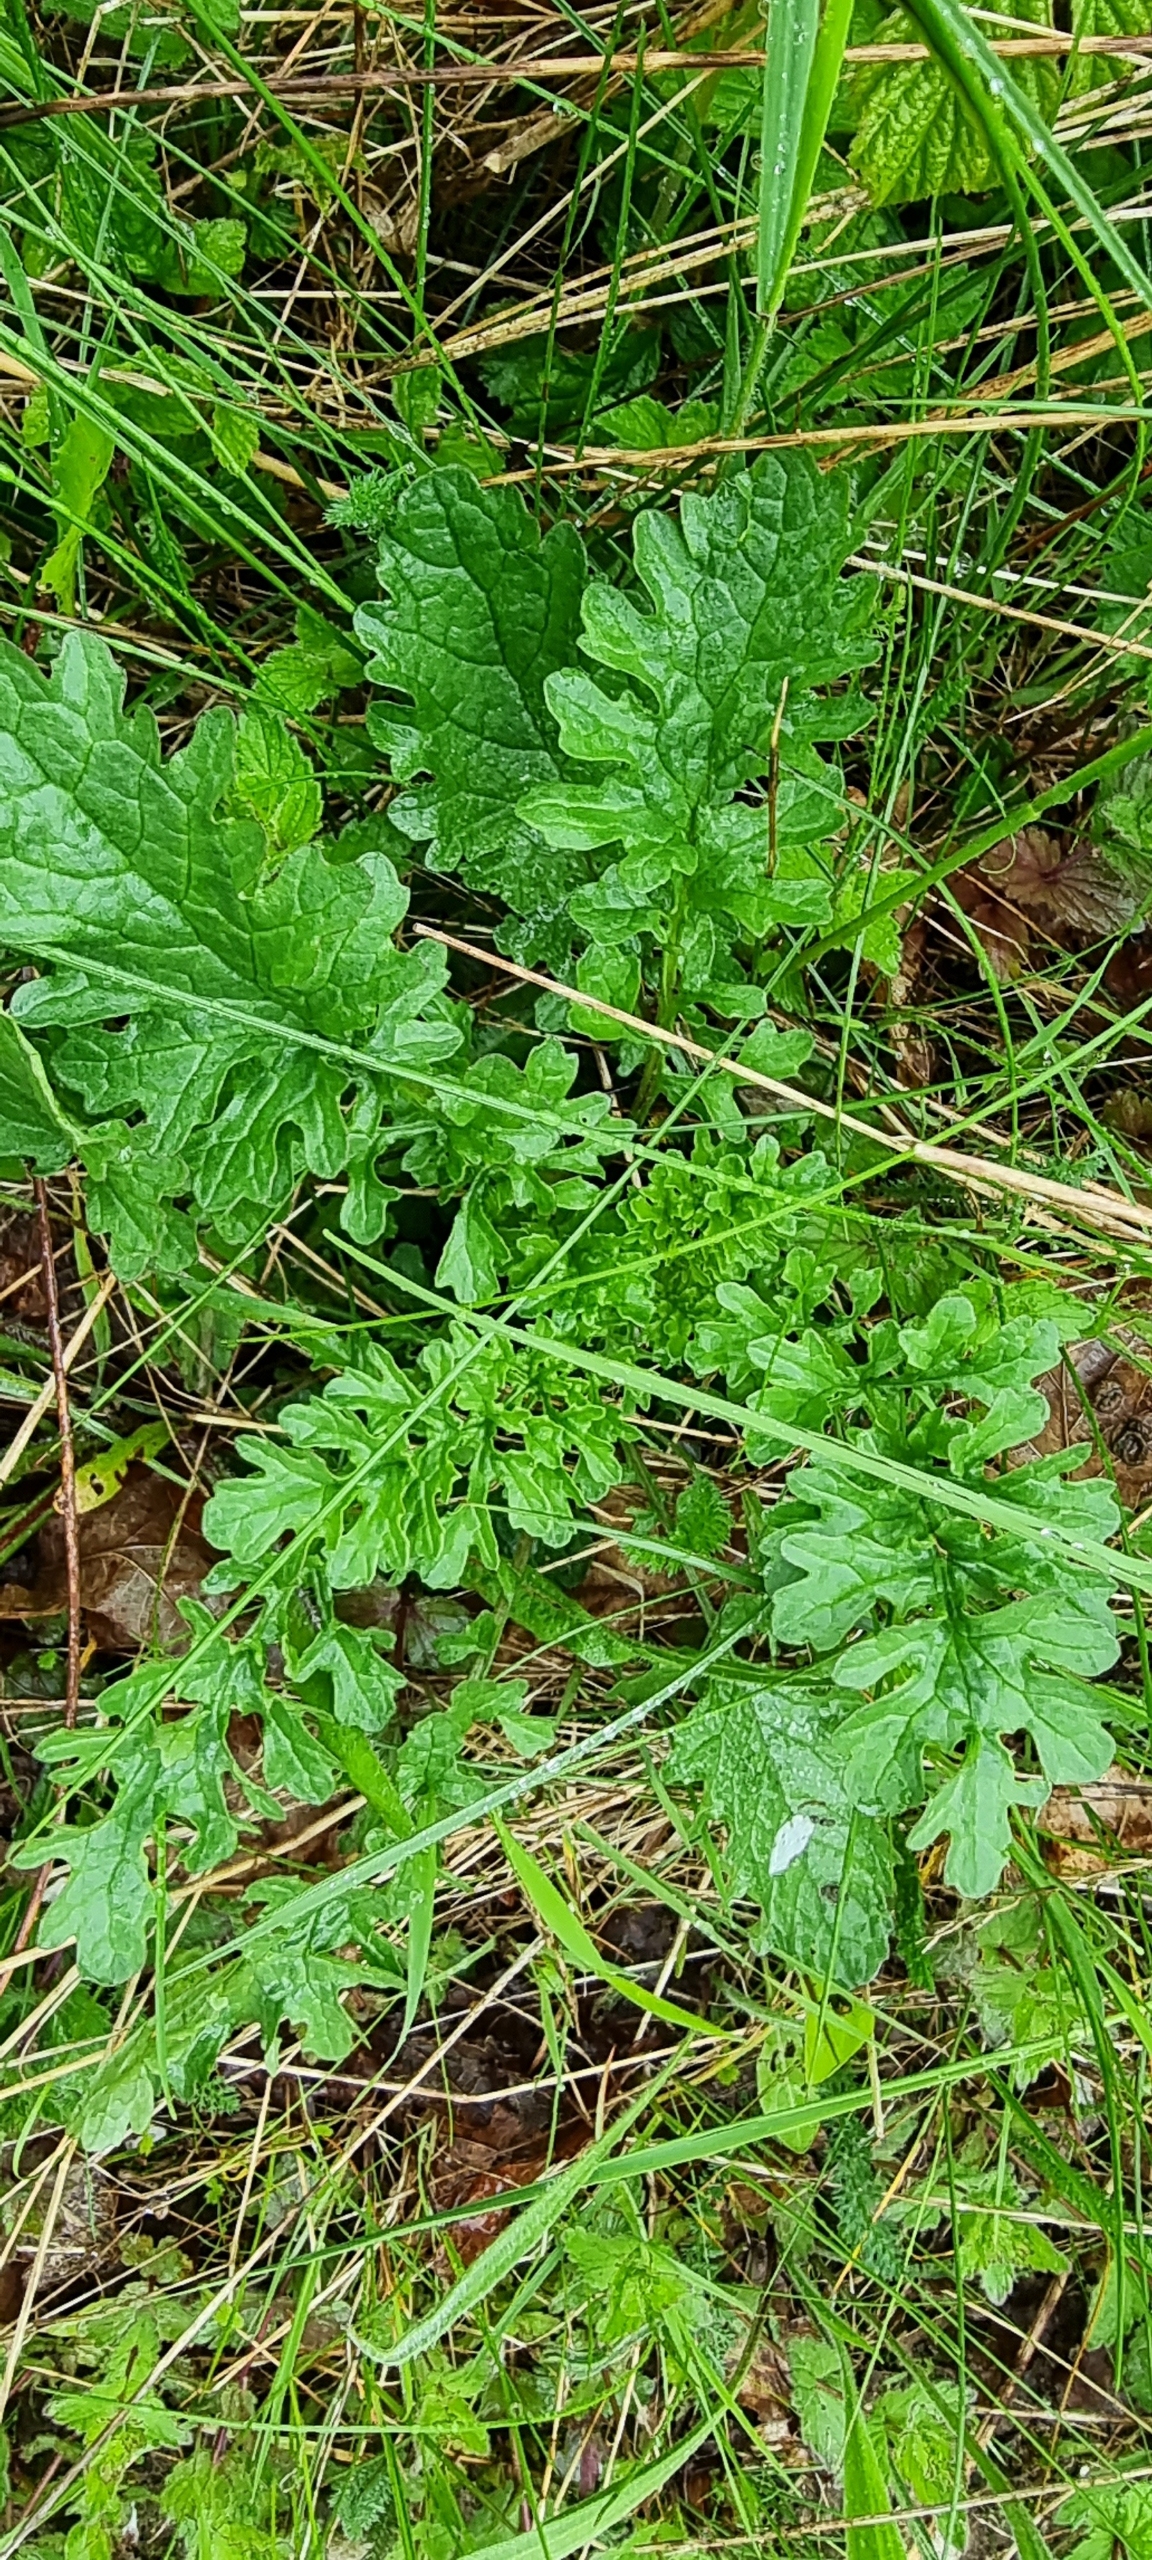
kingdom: Plantae
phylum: Tracheophyta
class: Magnoliopsida
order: Asterales
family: Asteraceae
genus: Jacobaea
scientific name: Jacobaea vulgaris
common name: Eng-brandbæger
